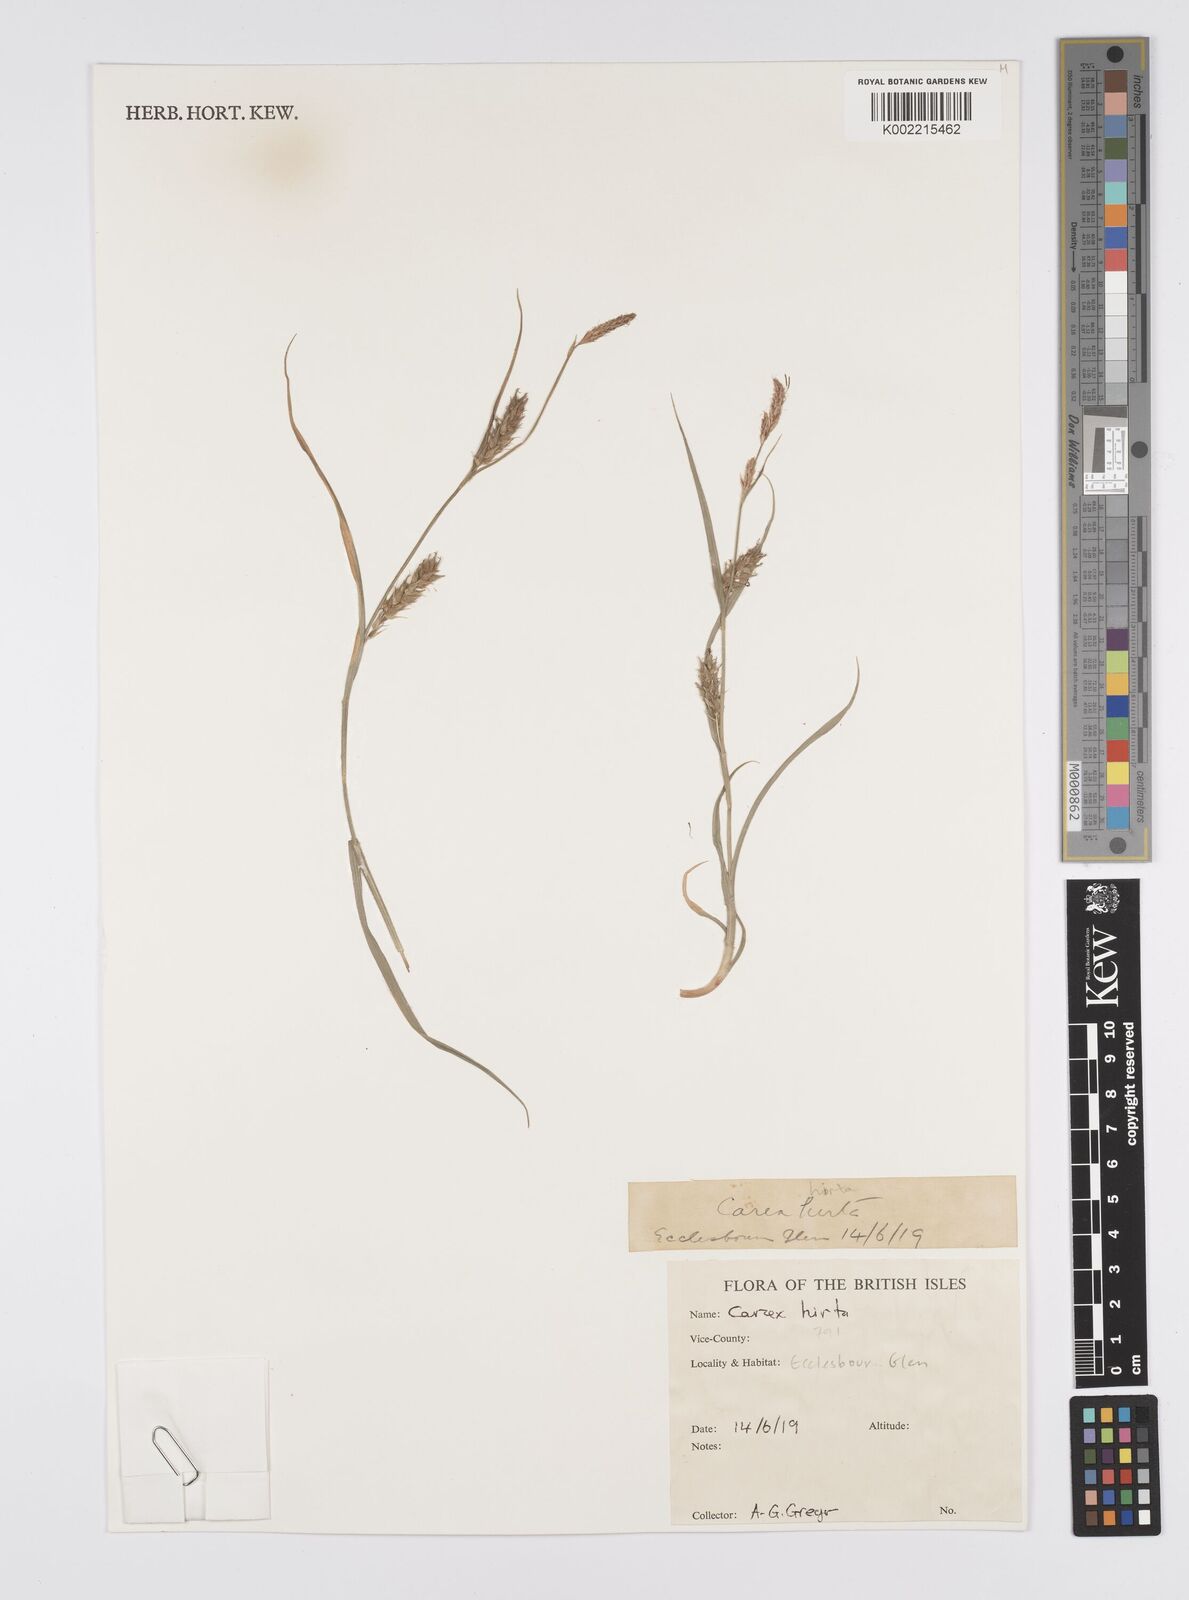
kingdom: Plantae
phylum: Tracheophyta
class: Liliopsida
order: Poales
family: Cyperaceae
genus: Carex
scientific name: Carex hirta
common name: Hairy sedge
